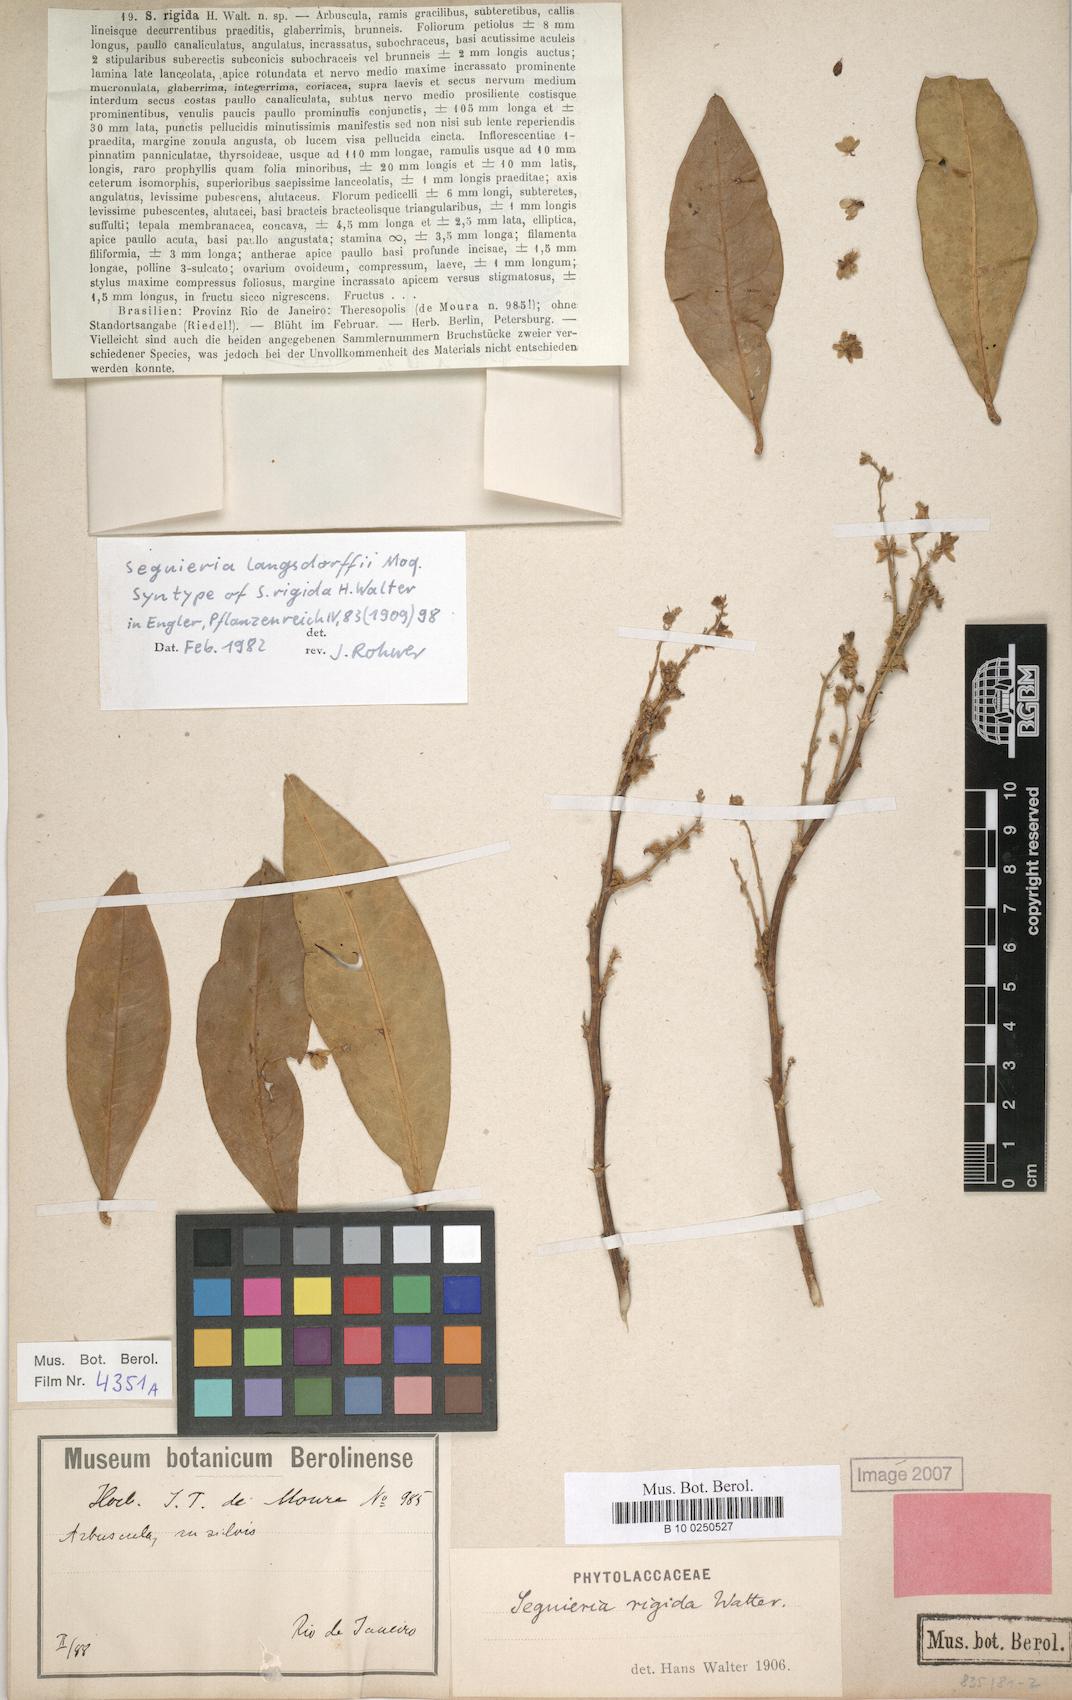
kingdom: Plantae
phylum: Tracheophyta
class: Magnoliopsida
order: Caryophyllales
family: Phytolaccaceae
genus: Seguieria
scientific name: Seguieria langsdorffii
